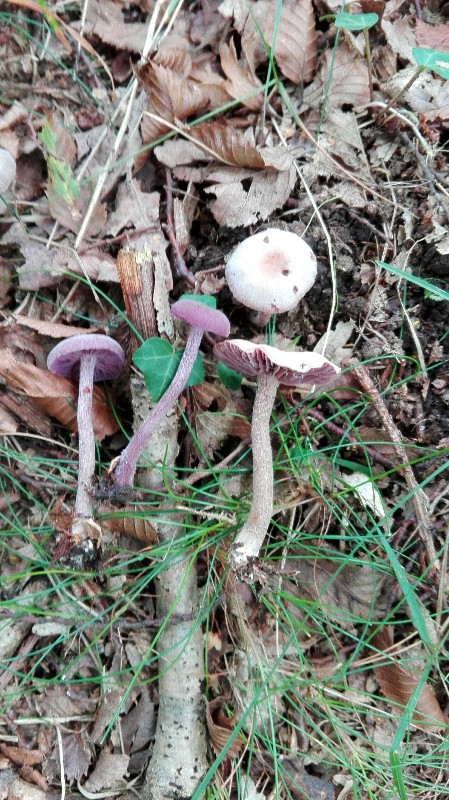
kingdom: Fungi
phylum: Basidiomycota
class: Agaricomycetes
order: Agaricales
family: Hydnangiaceae
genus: Laccaria
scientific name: Laccaria amethystina
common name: violet ametysthat
